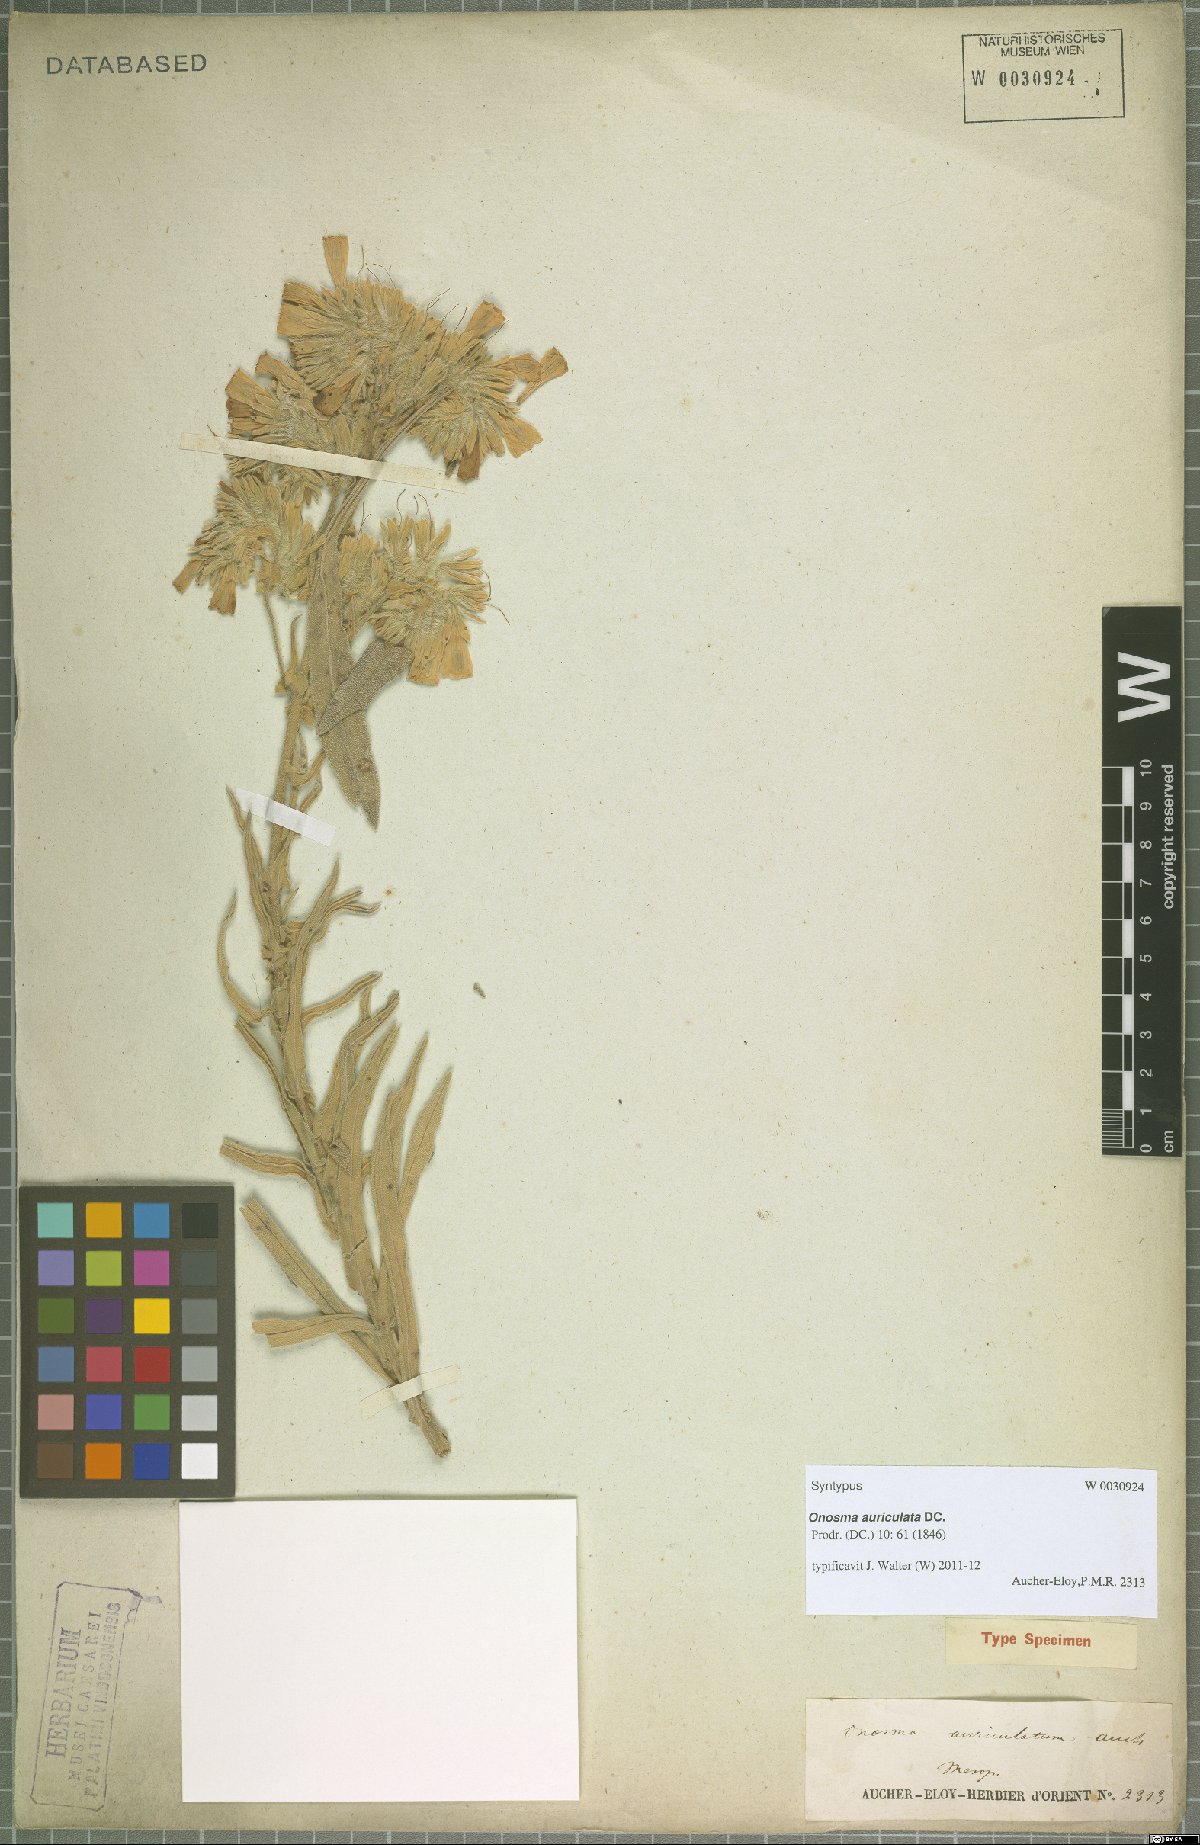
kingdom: Plantae
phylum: Tracheophyta
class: Magnoliopsida
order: Boraginales
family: Boraginaceae
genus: Onosma
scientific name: Onosma auriculata
